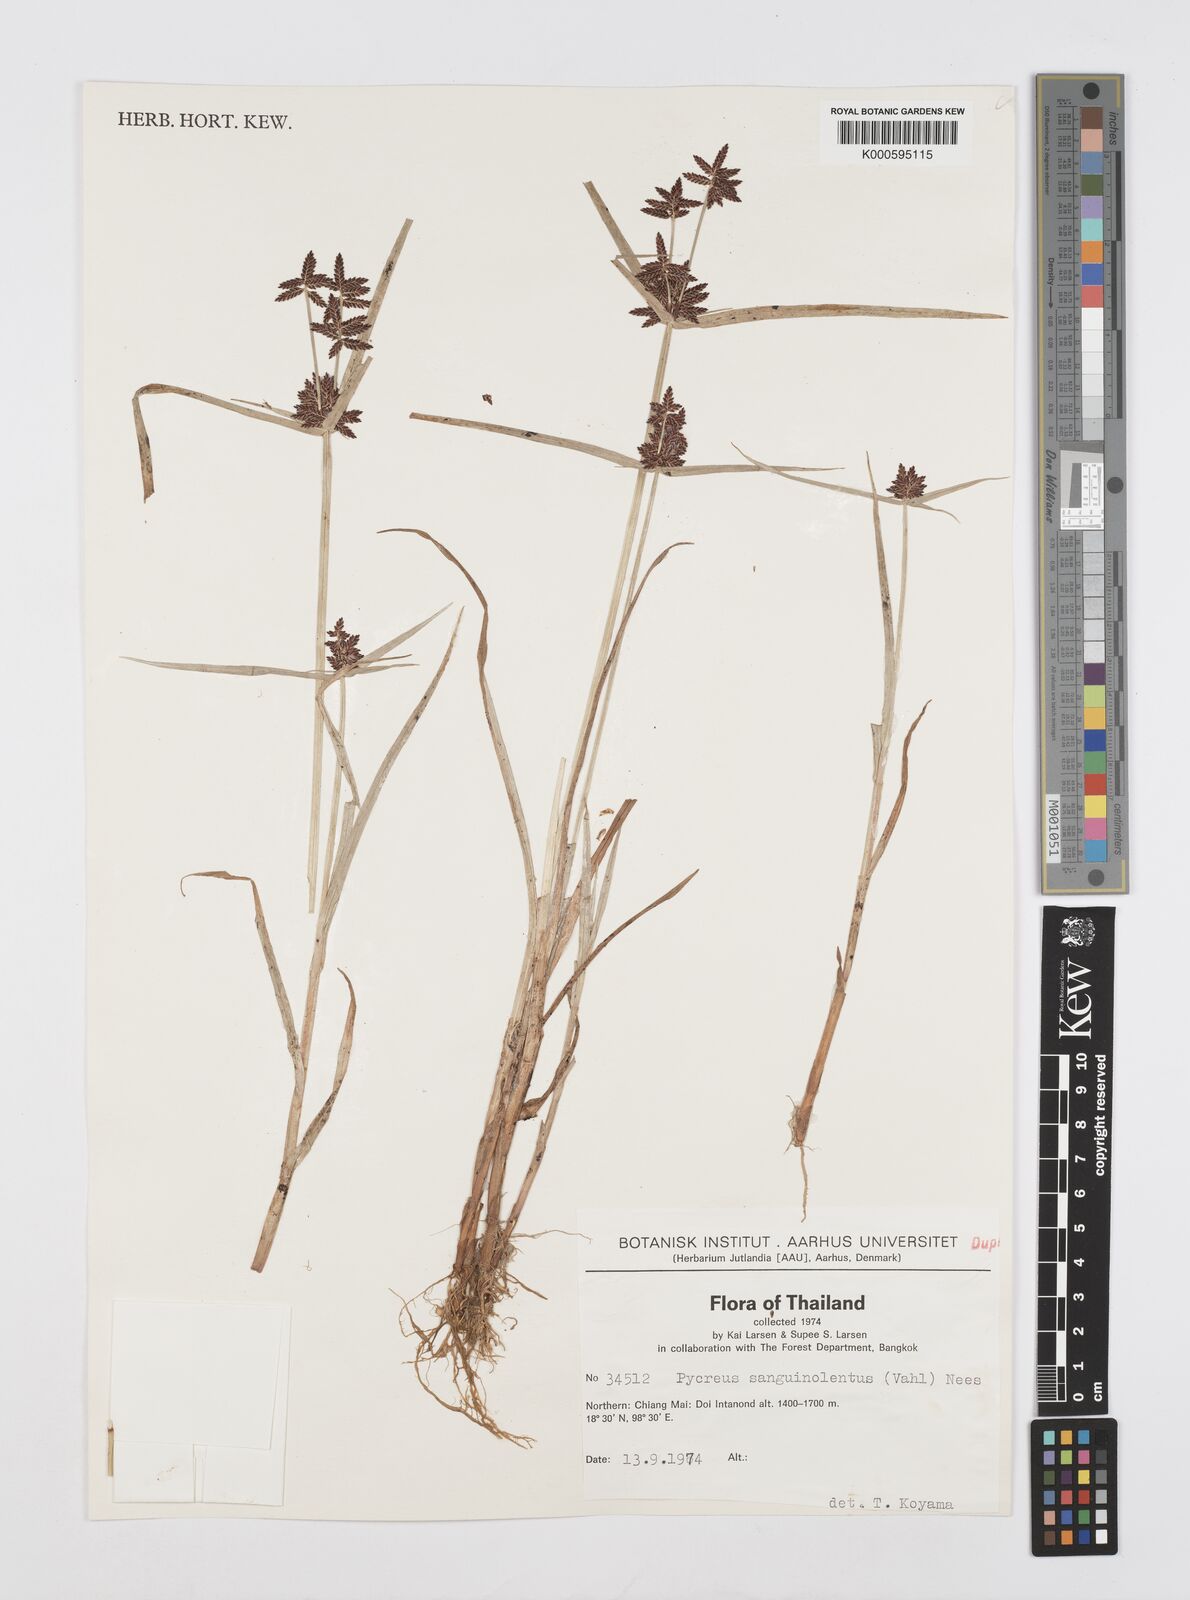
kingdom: Plantae
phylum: Tracheophyta
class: Liliopsida
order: Poales
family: Cyperaceae
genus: Cyperus
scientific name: Cyperus sanguinolentus
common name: Purpleglume flatsedge
